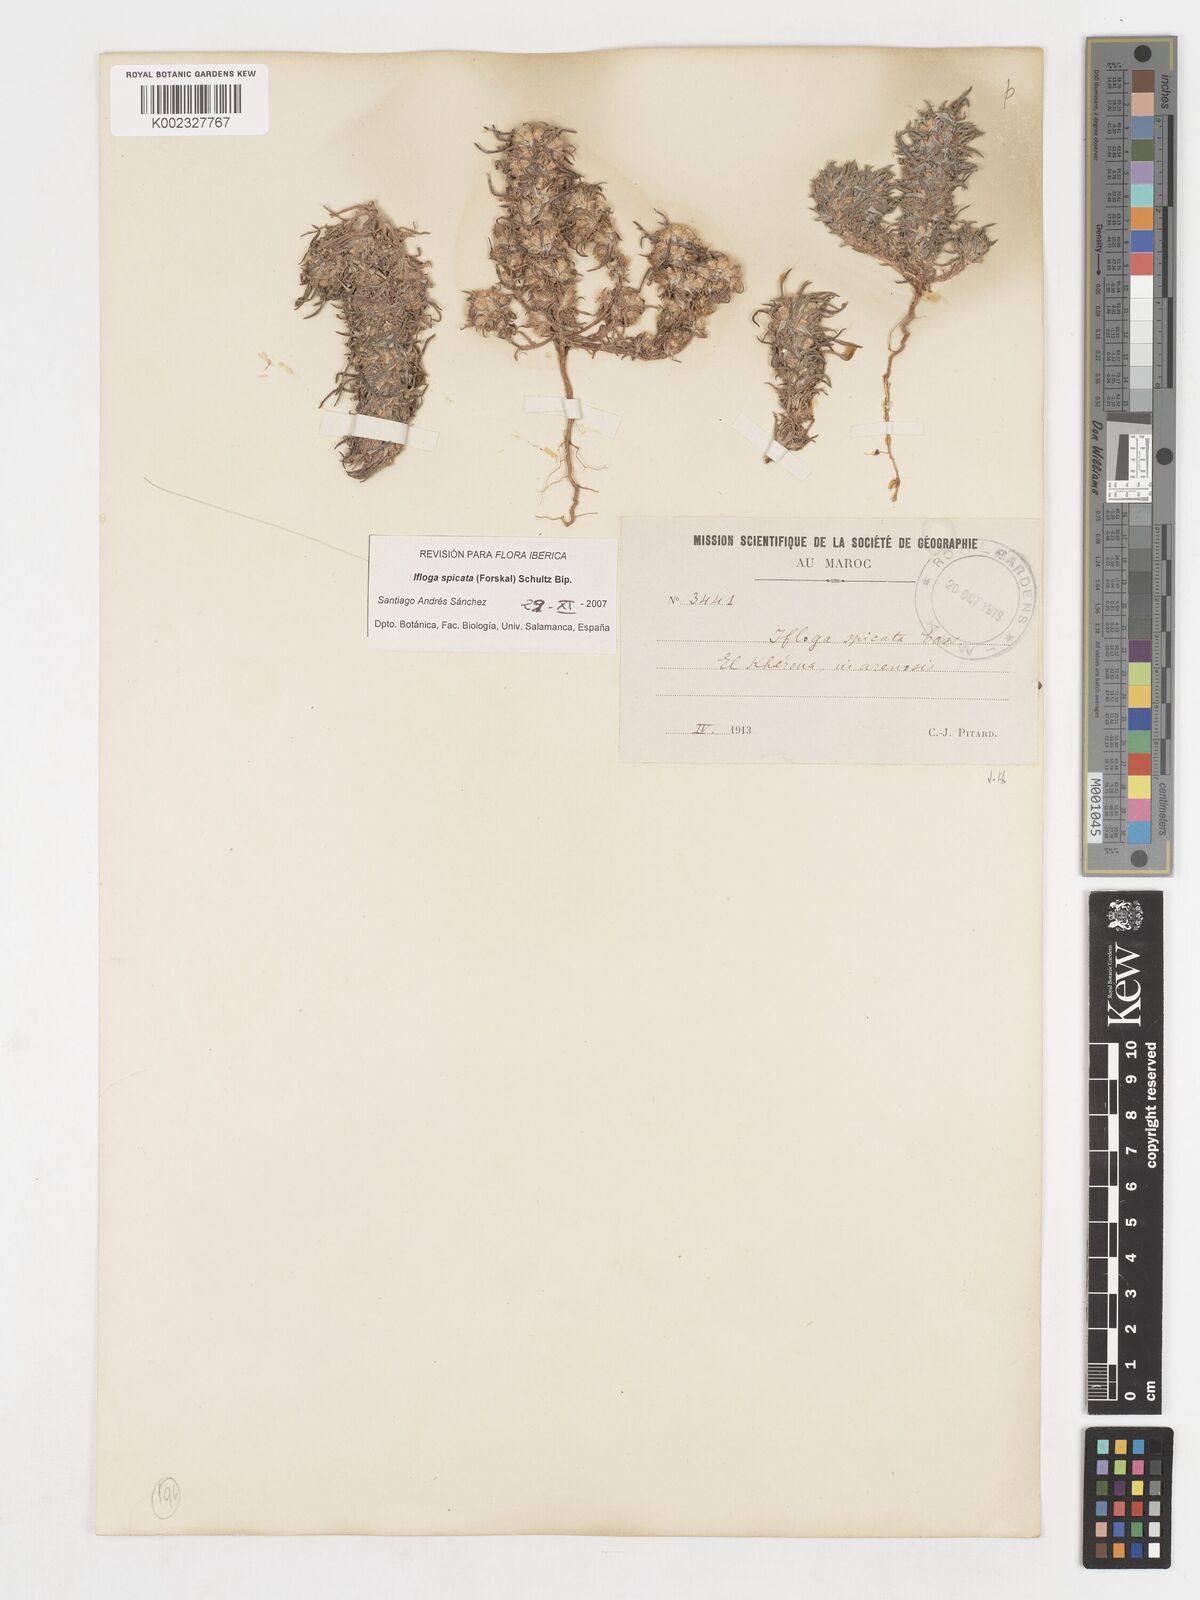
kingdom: Plantae
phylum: Tracheophyta
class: Magnoliopsida
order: Asterales
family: Asteraceae
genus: Ifloga
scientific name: Ifloga spicata
